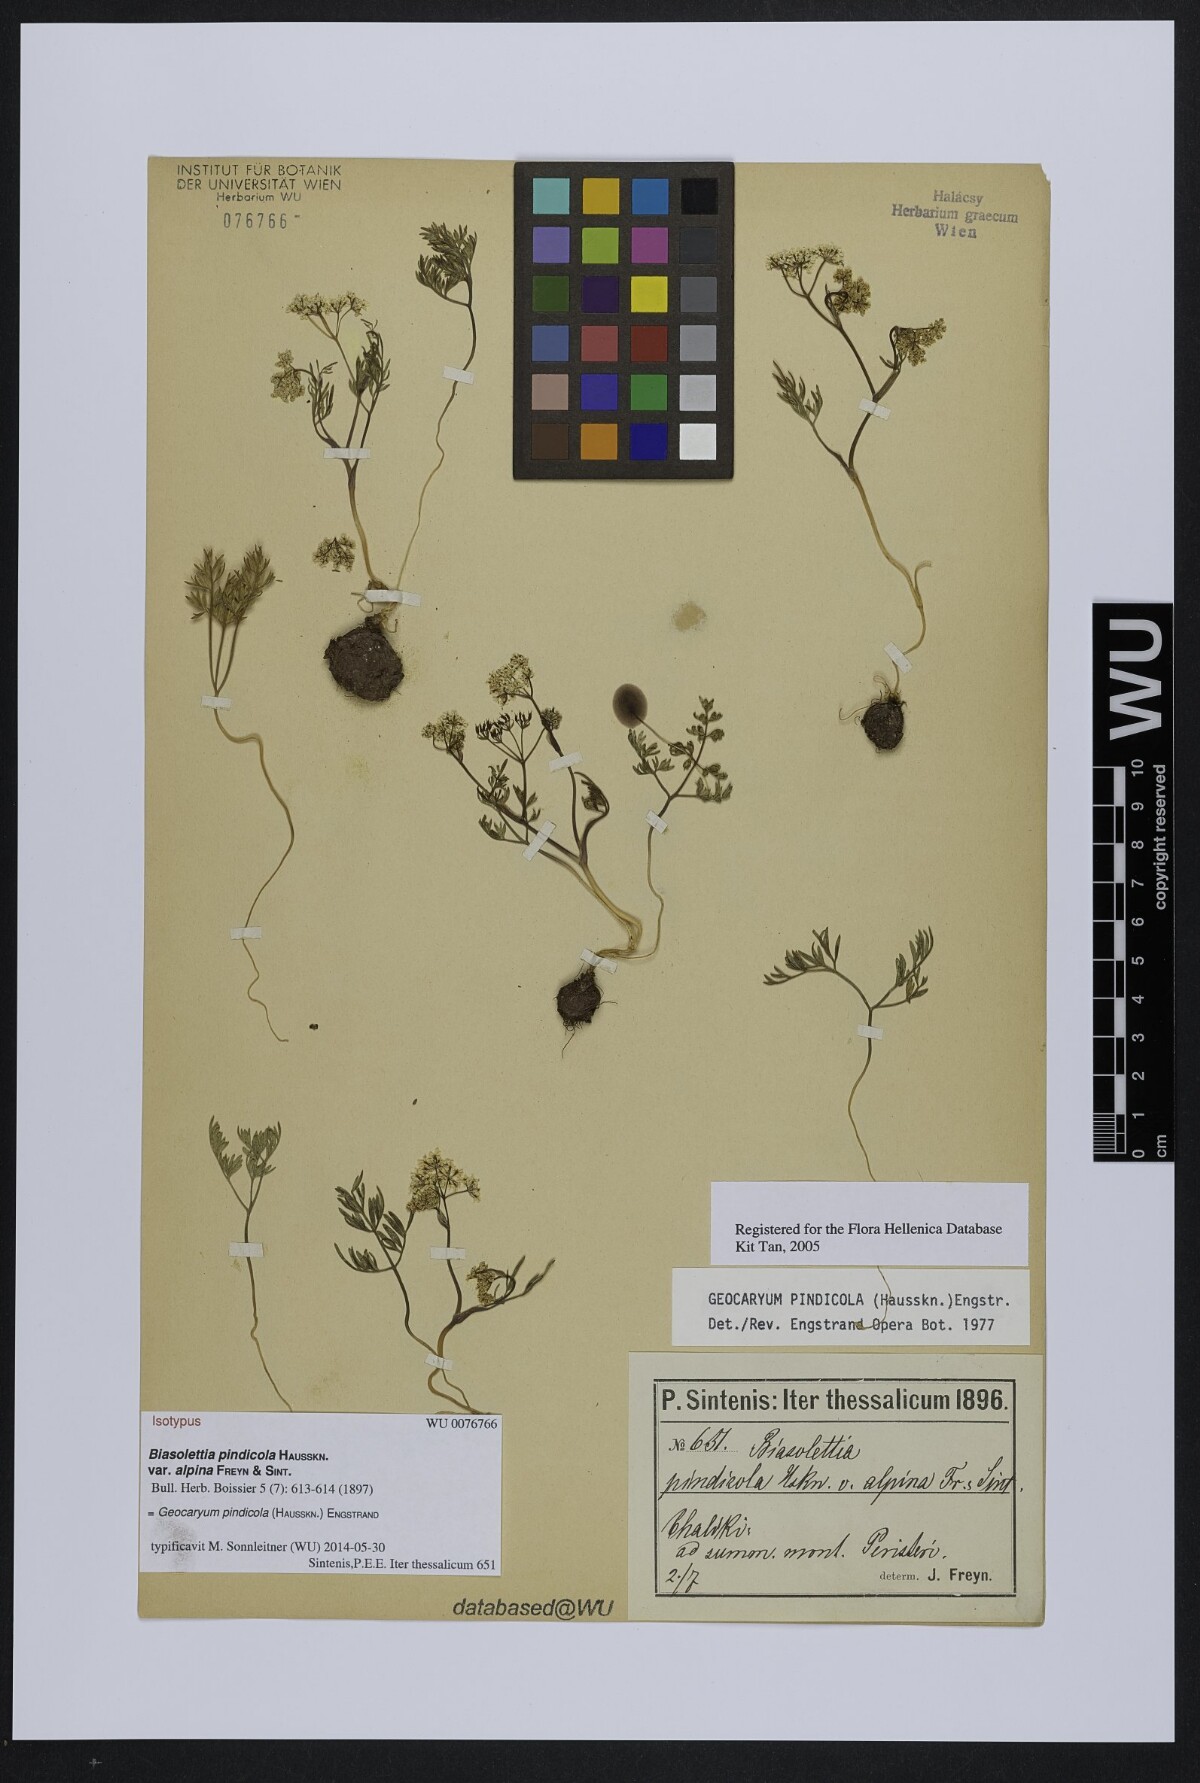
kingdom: Plantae
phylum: Tracheophyta
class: Magnoliopsida
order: Apiales
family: Apiaceae
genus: Geocaryum
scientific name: Geocaryum pindicola
